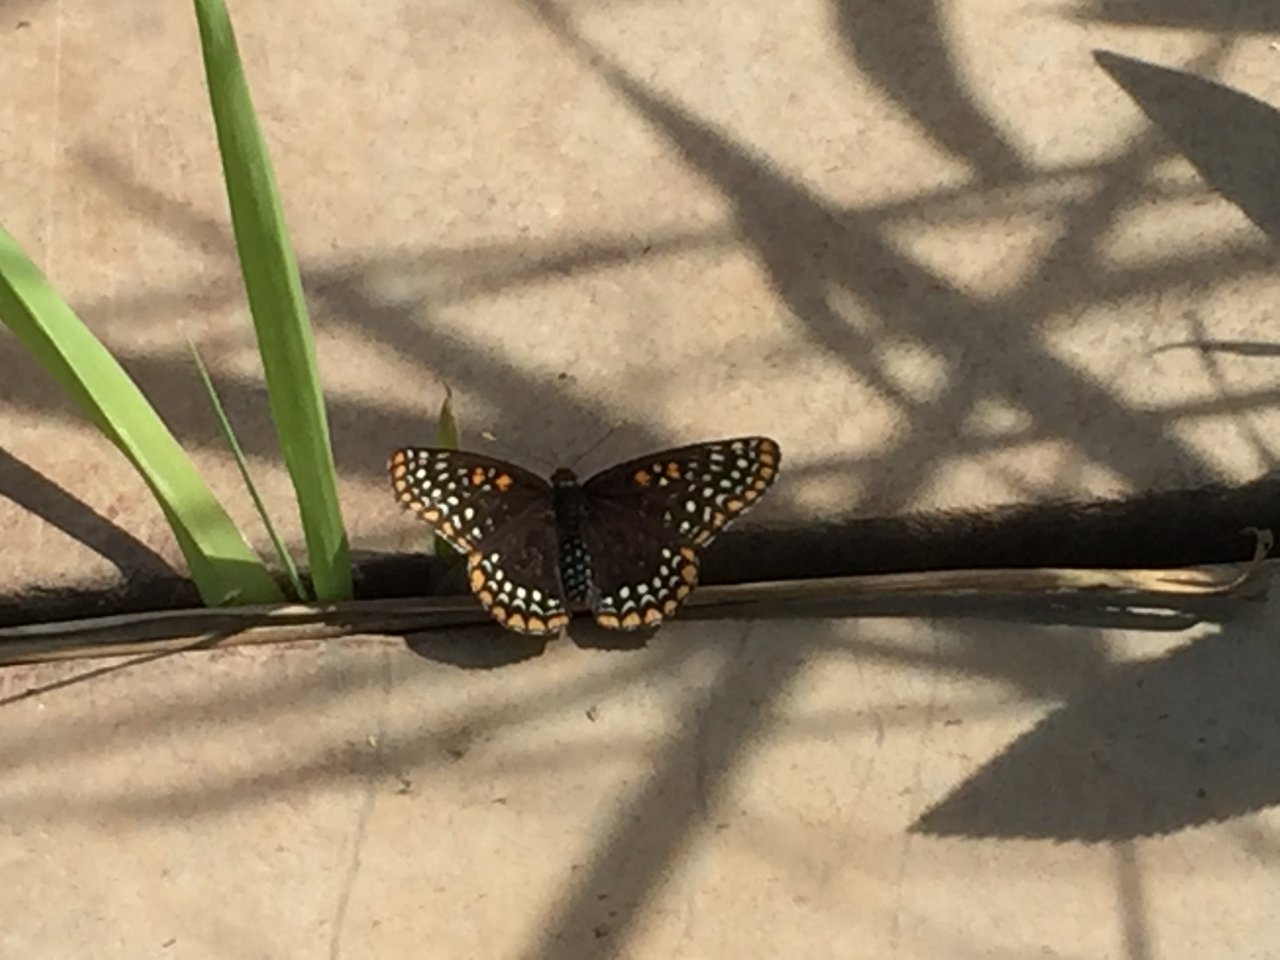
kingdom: Animalia
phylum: Arthropoda
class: Insecta
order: Lepidoptera
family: Nymphalidae
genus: Euphydryas
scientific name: Euphydryas phaeton
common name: Baltimore Checkerspot
